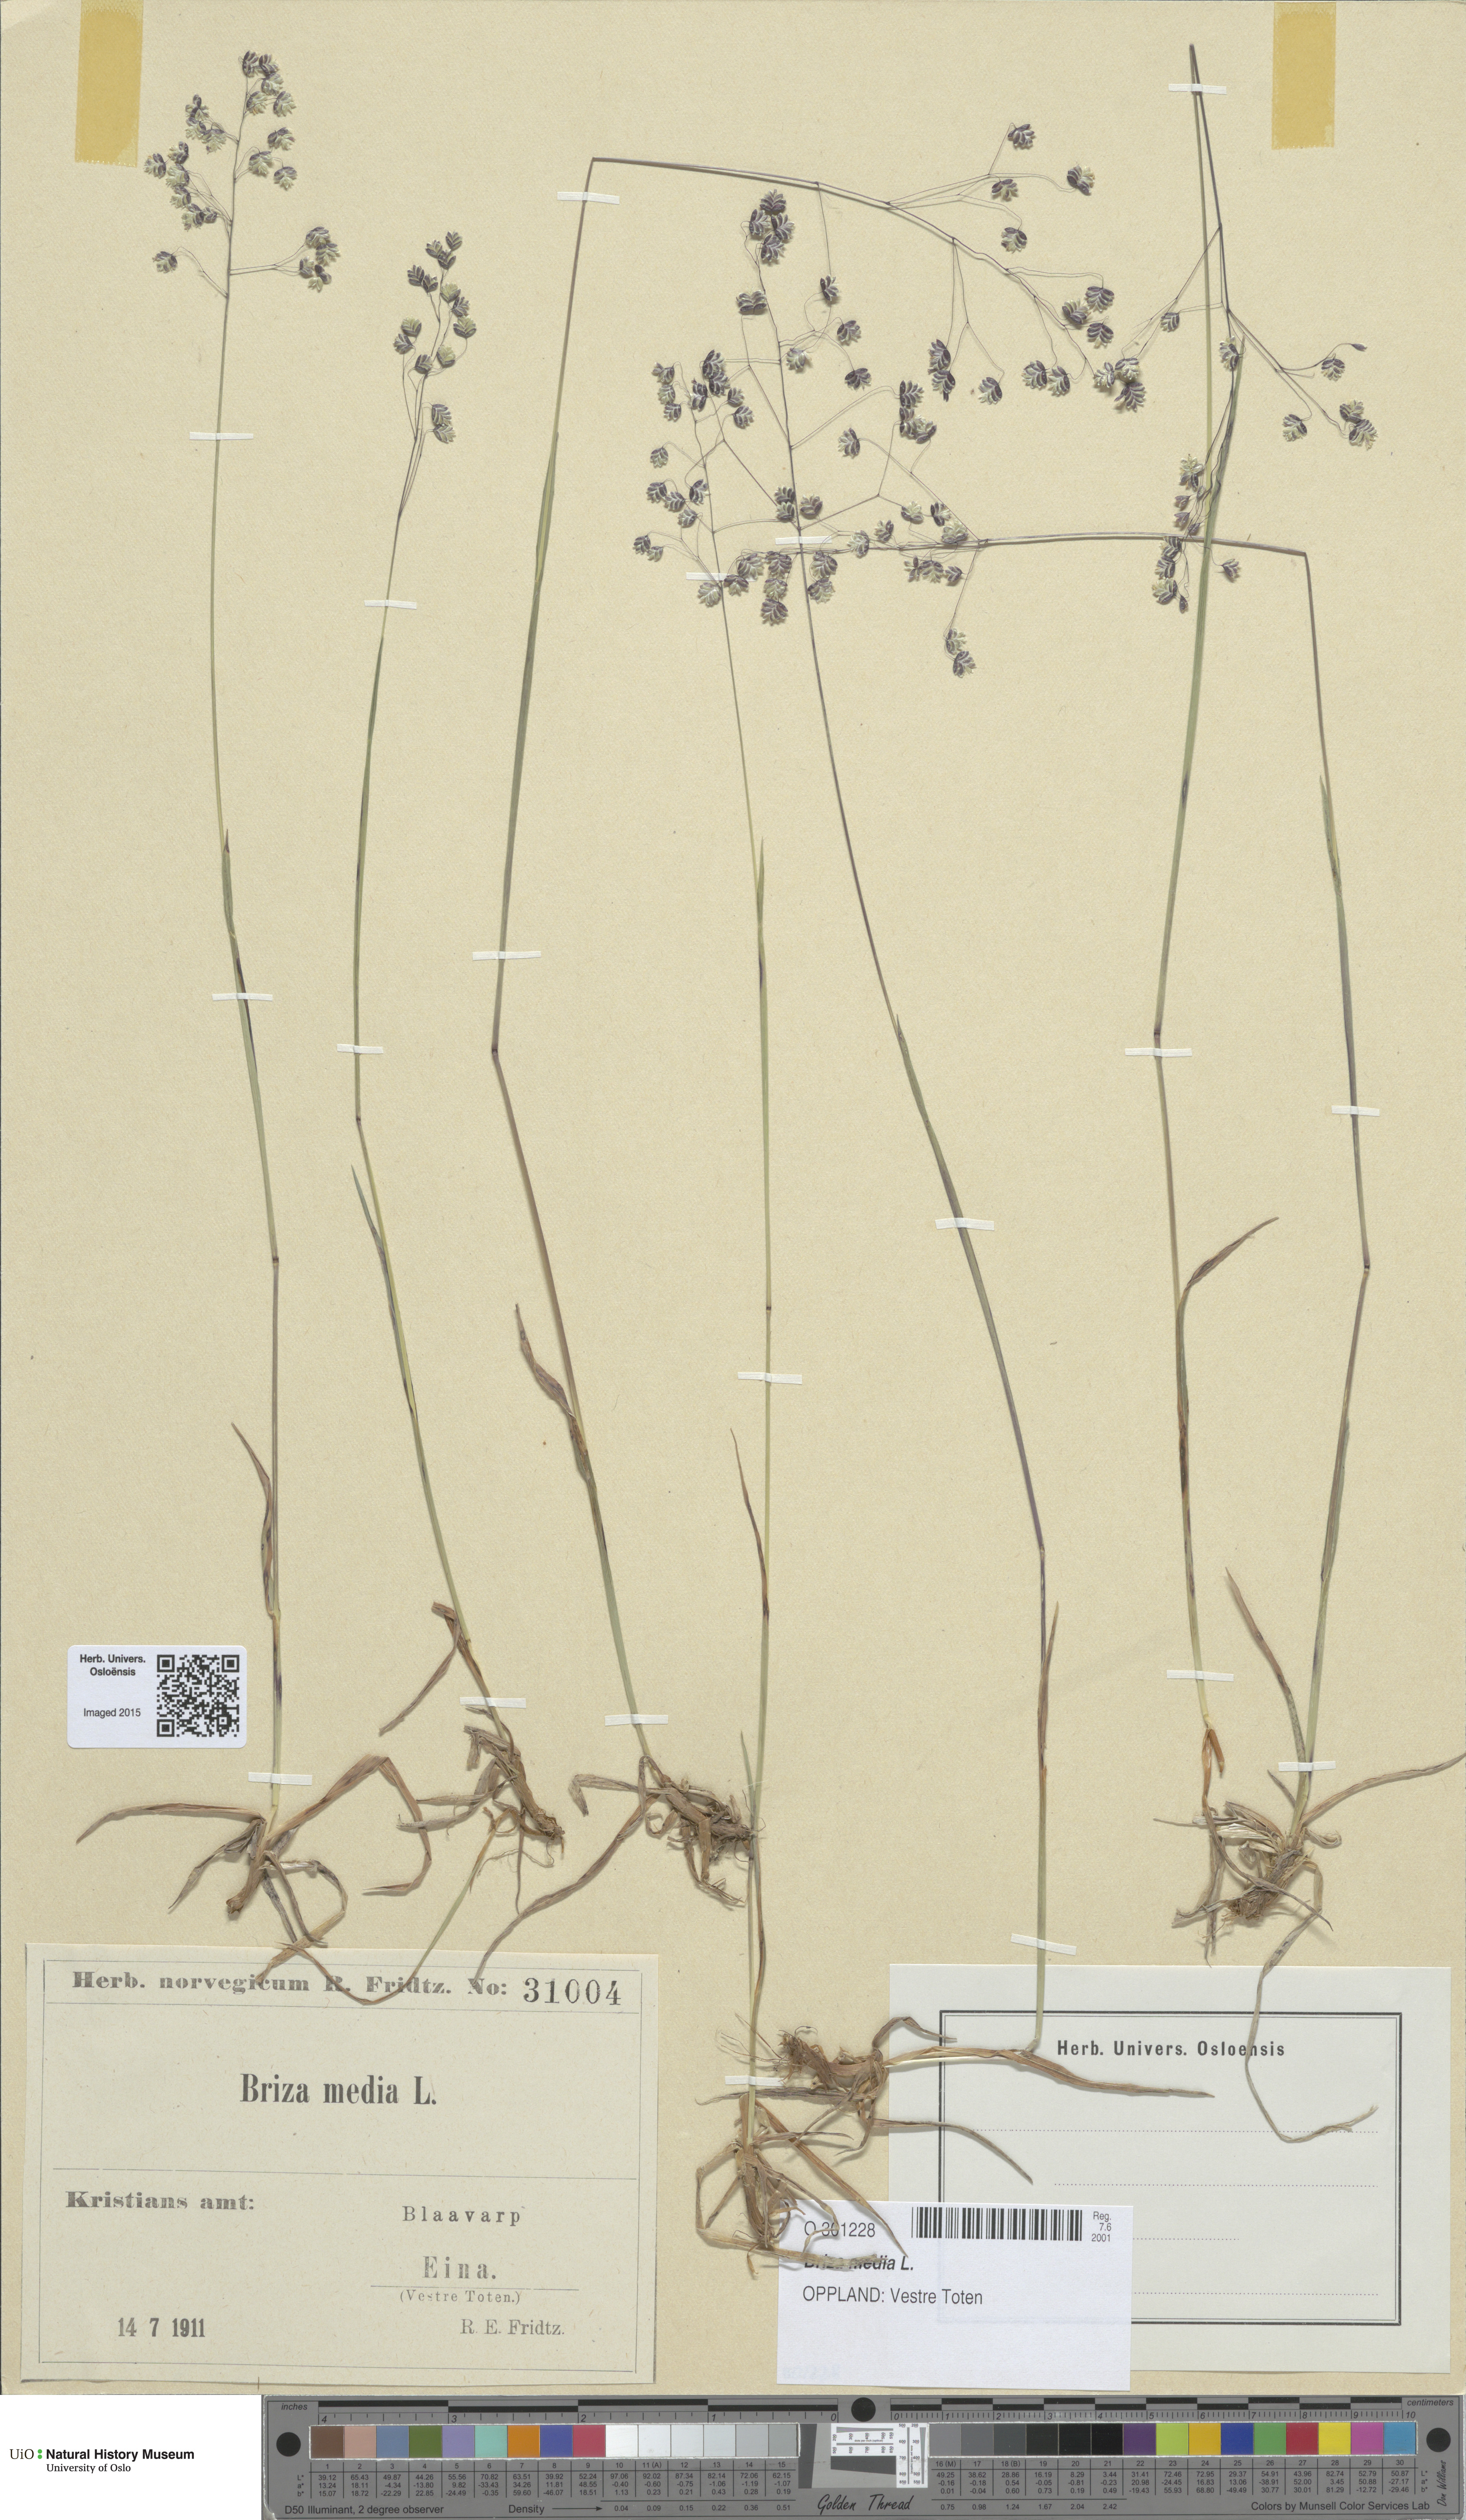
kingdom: Plantae
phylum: Tracheophyta
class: Liliopsida
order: Poales
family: Poaceae
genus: Briza
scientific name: Briza media
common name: Quaking grass
